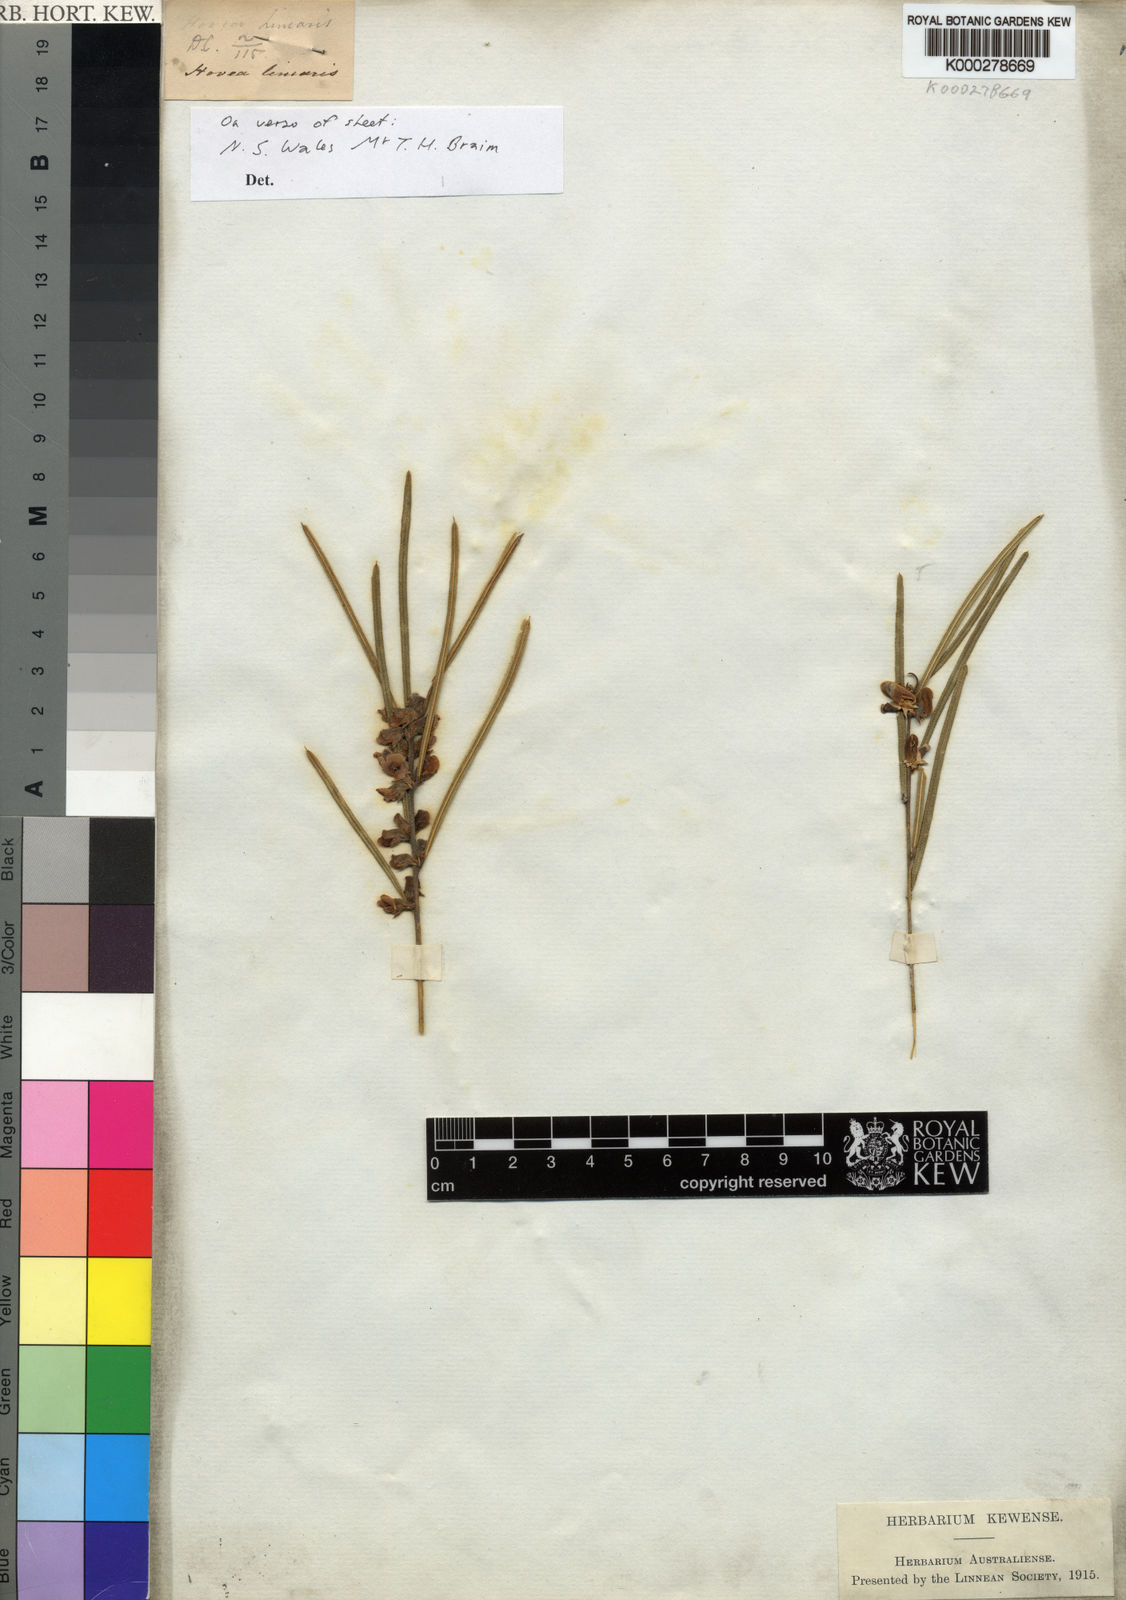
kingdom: Plantae
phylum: Tracheophyta
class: Magnoliopsida
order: Fabales
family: Fabaceae
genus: Hovea
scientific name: Hovea linearis
